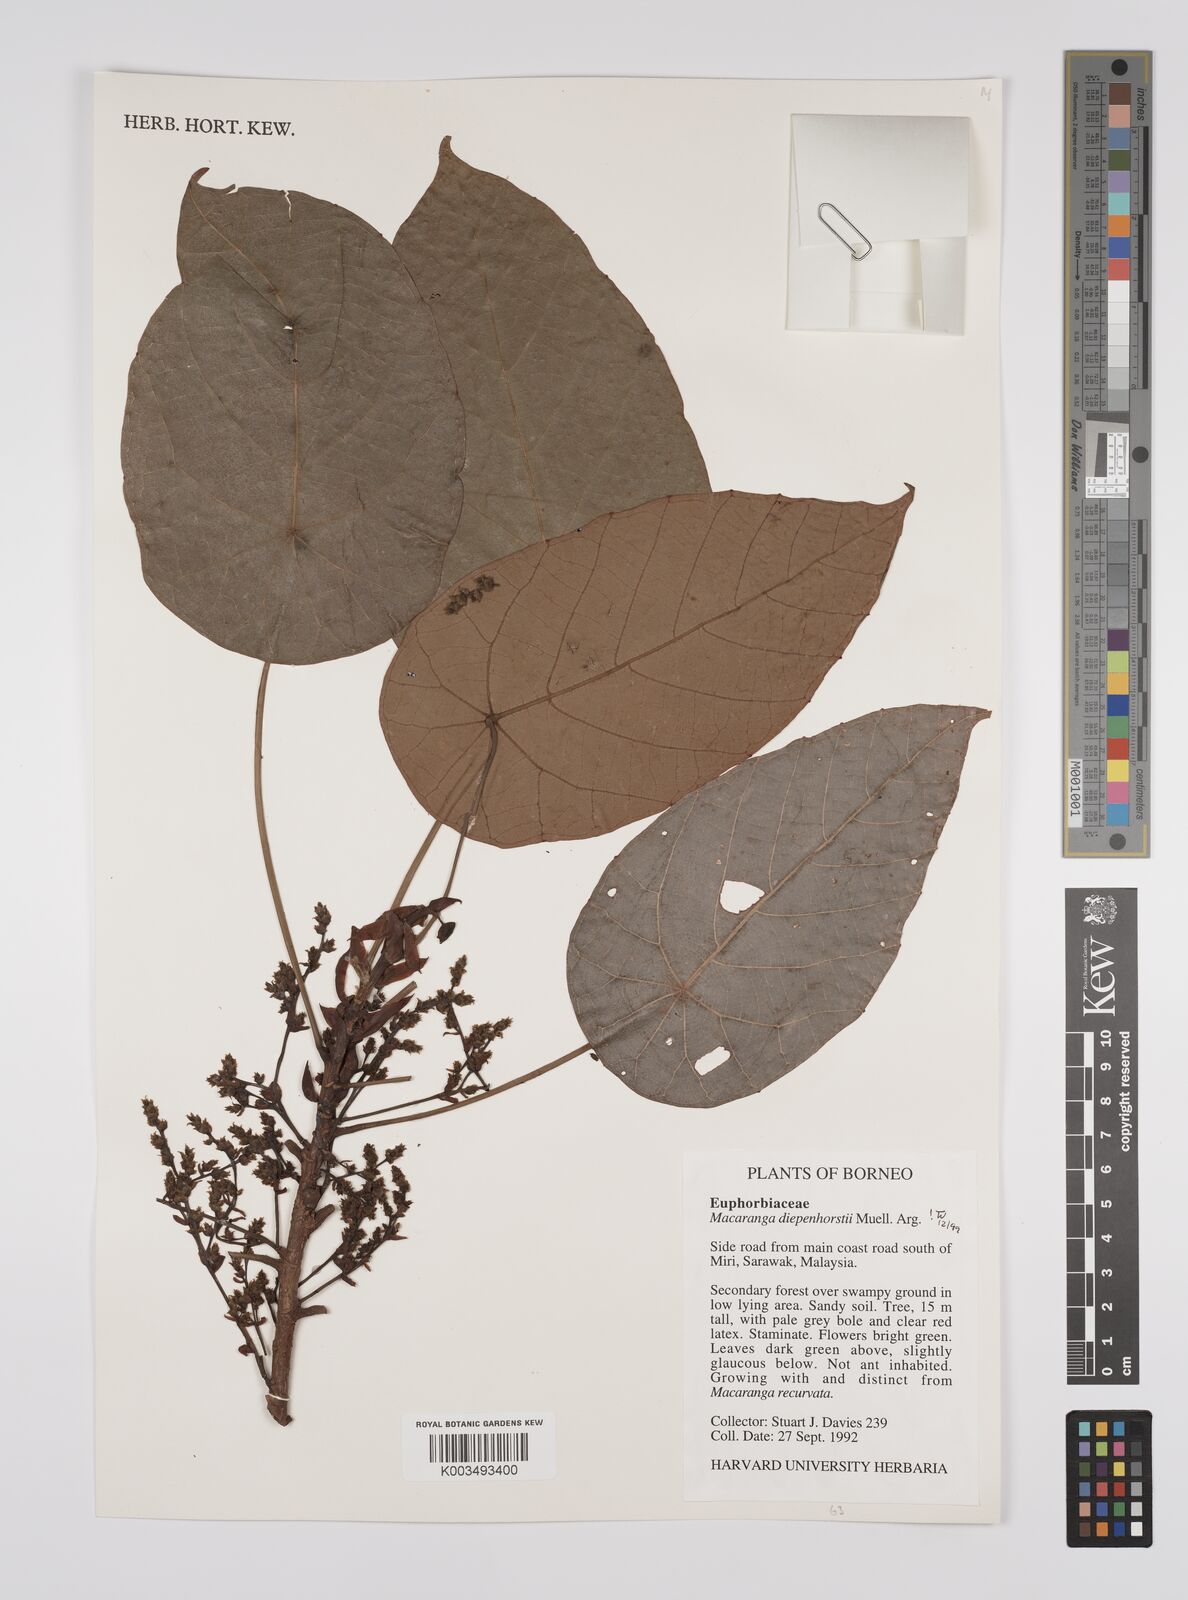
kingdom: Plantae
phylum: Tracheophyta
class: Magnoliopsida
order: Malpighiales
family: Euphorbiaceae
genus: Macaranga
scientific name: Macaranga diepenhorstii
